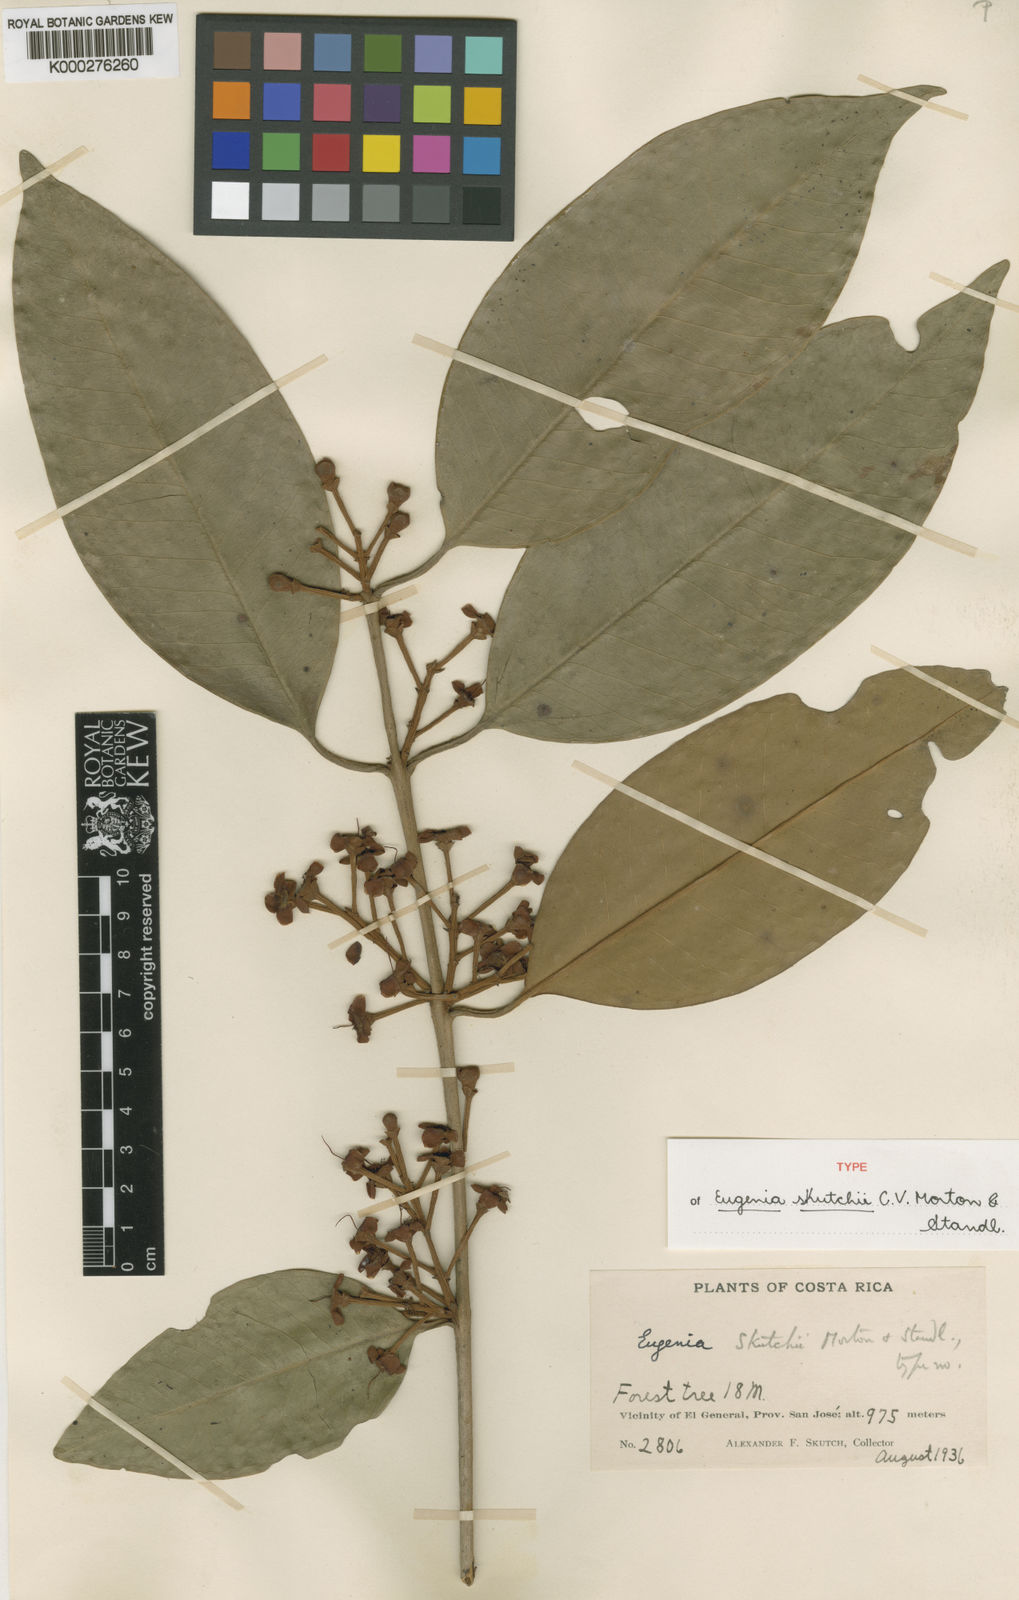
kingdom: Plantae
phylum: Tracheophyta
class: Magnoliopsida
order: Myrtales
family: Myrtaceae
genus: Eugenia
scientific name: Eugenia skutchii
